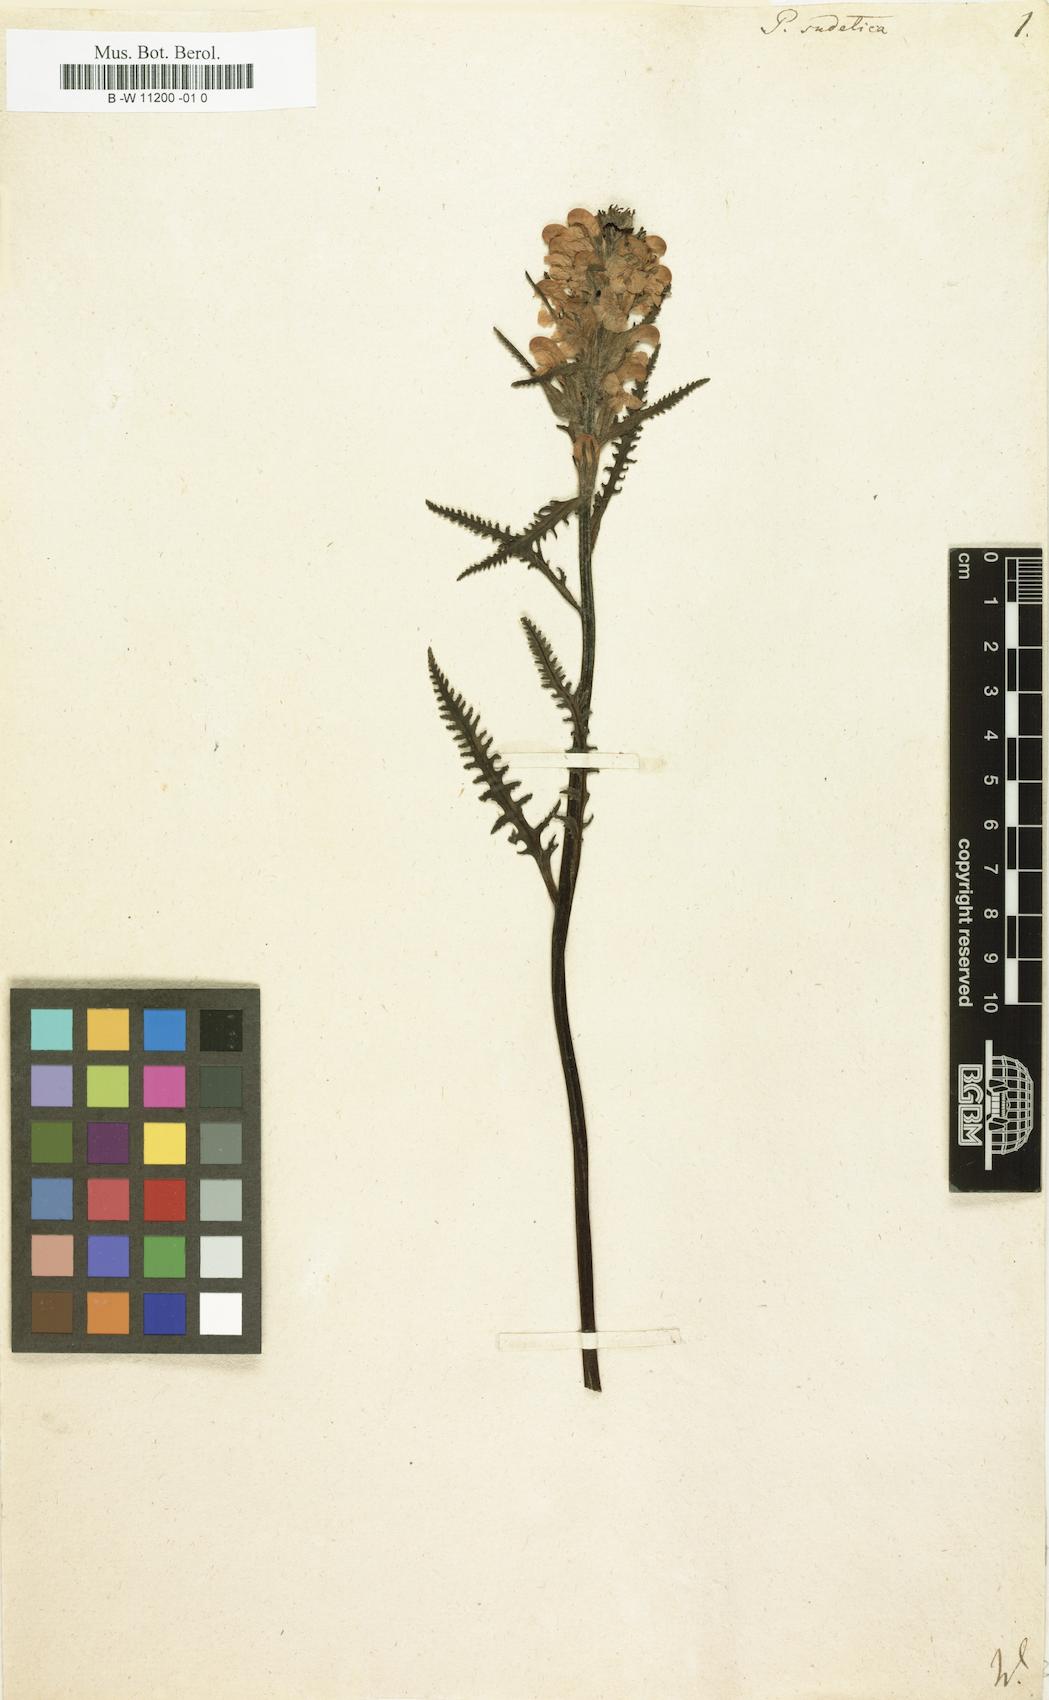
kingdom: Plantae
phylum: Tracheophyta
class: Magnoliopsida
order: Lamiales
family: Orobanchaceae
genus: Pedicularis
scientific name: Pedicularis sudetica
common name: Sudeten lousewort
